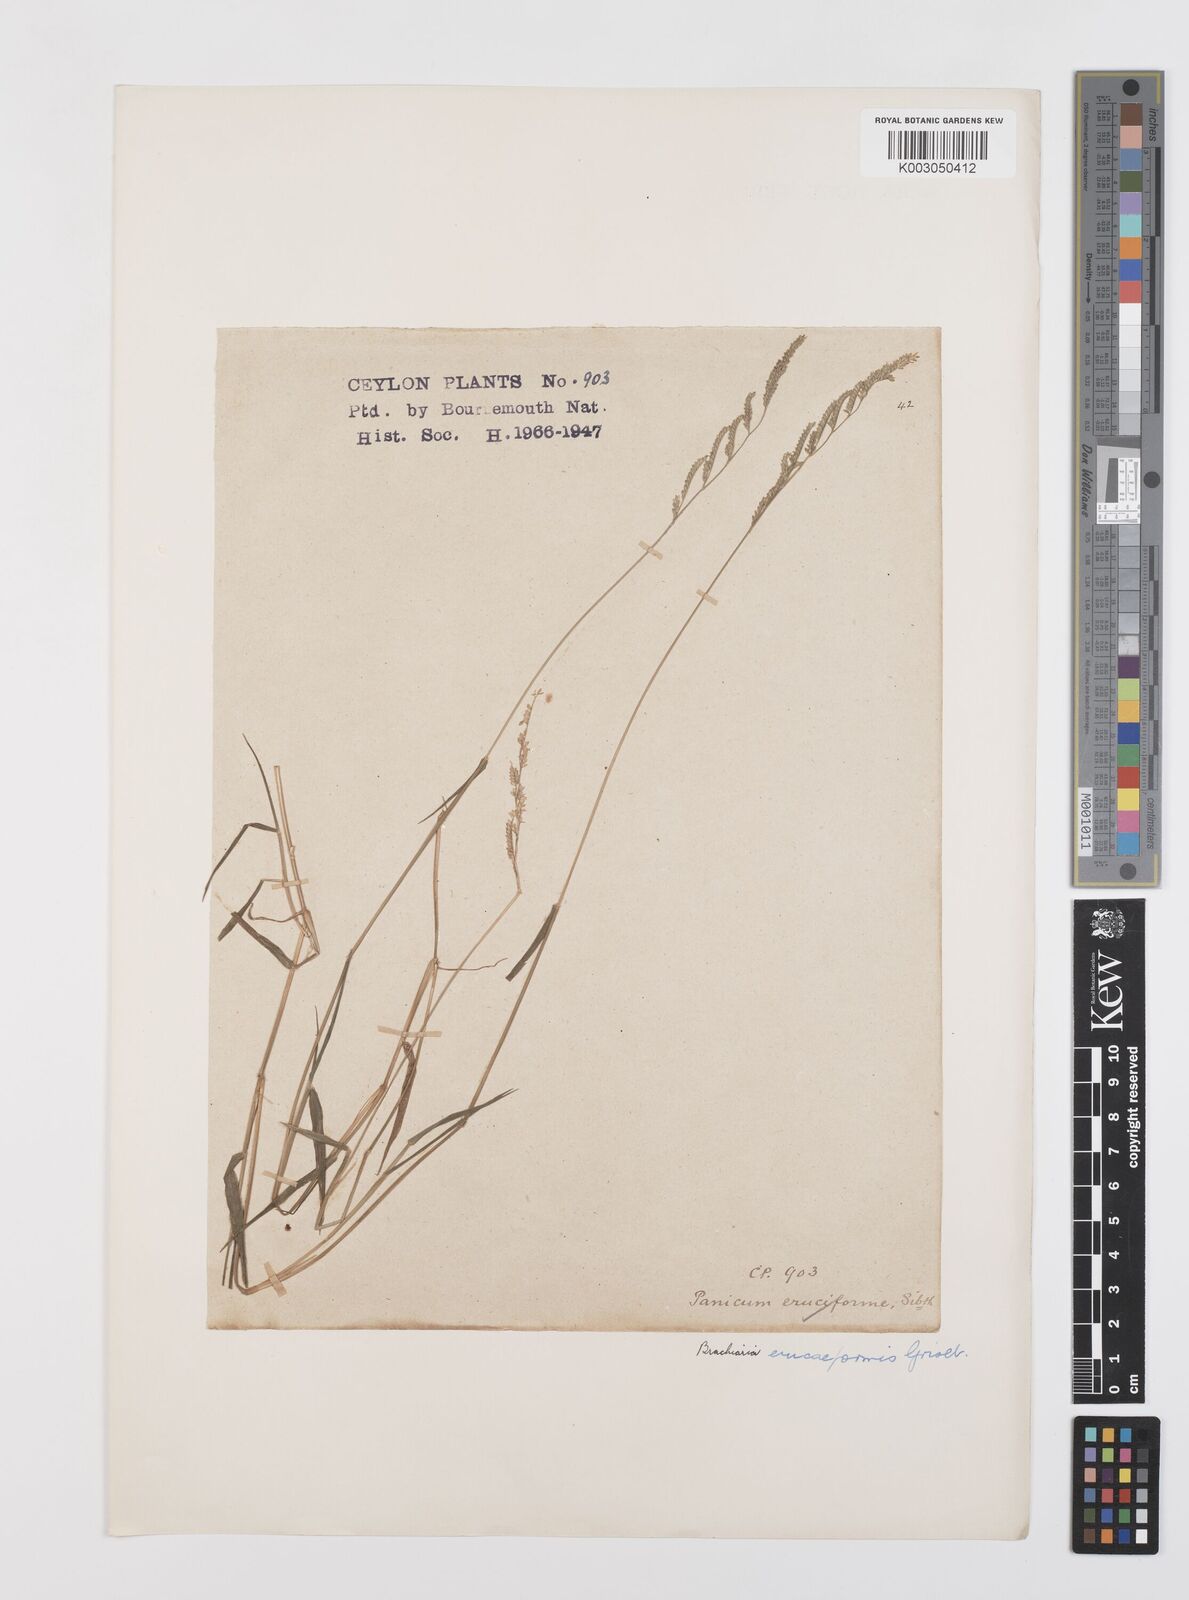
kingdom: Plantae
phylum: Tracheophyta
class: Liliopsida
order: Poales
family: Poaceae
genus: Moorochloa
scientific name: Moorochloa eruciformis
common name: Sweet signalgrass
